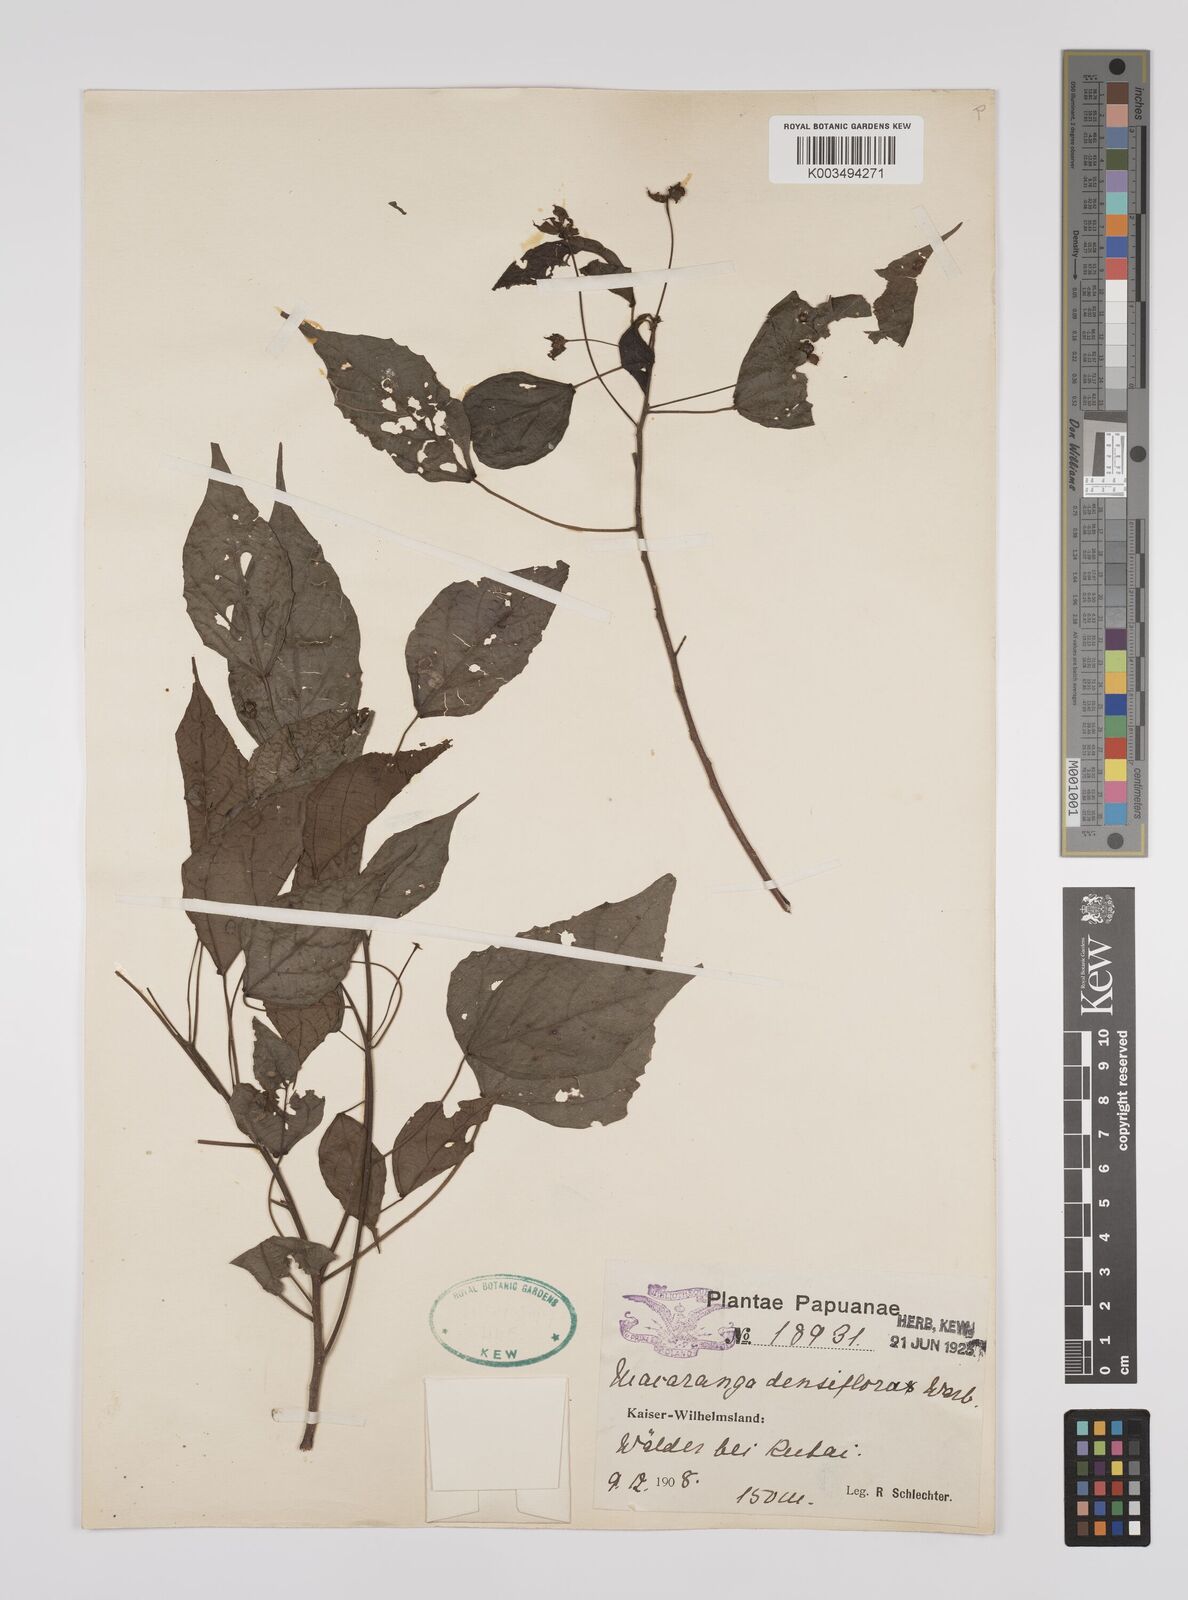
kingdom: Plantae
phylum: Tracheophyta
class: Magnoliopsida
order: Malpighiales
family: Euphorbiaceae
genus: Macaranga
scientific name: Macaranga densiflora
